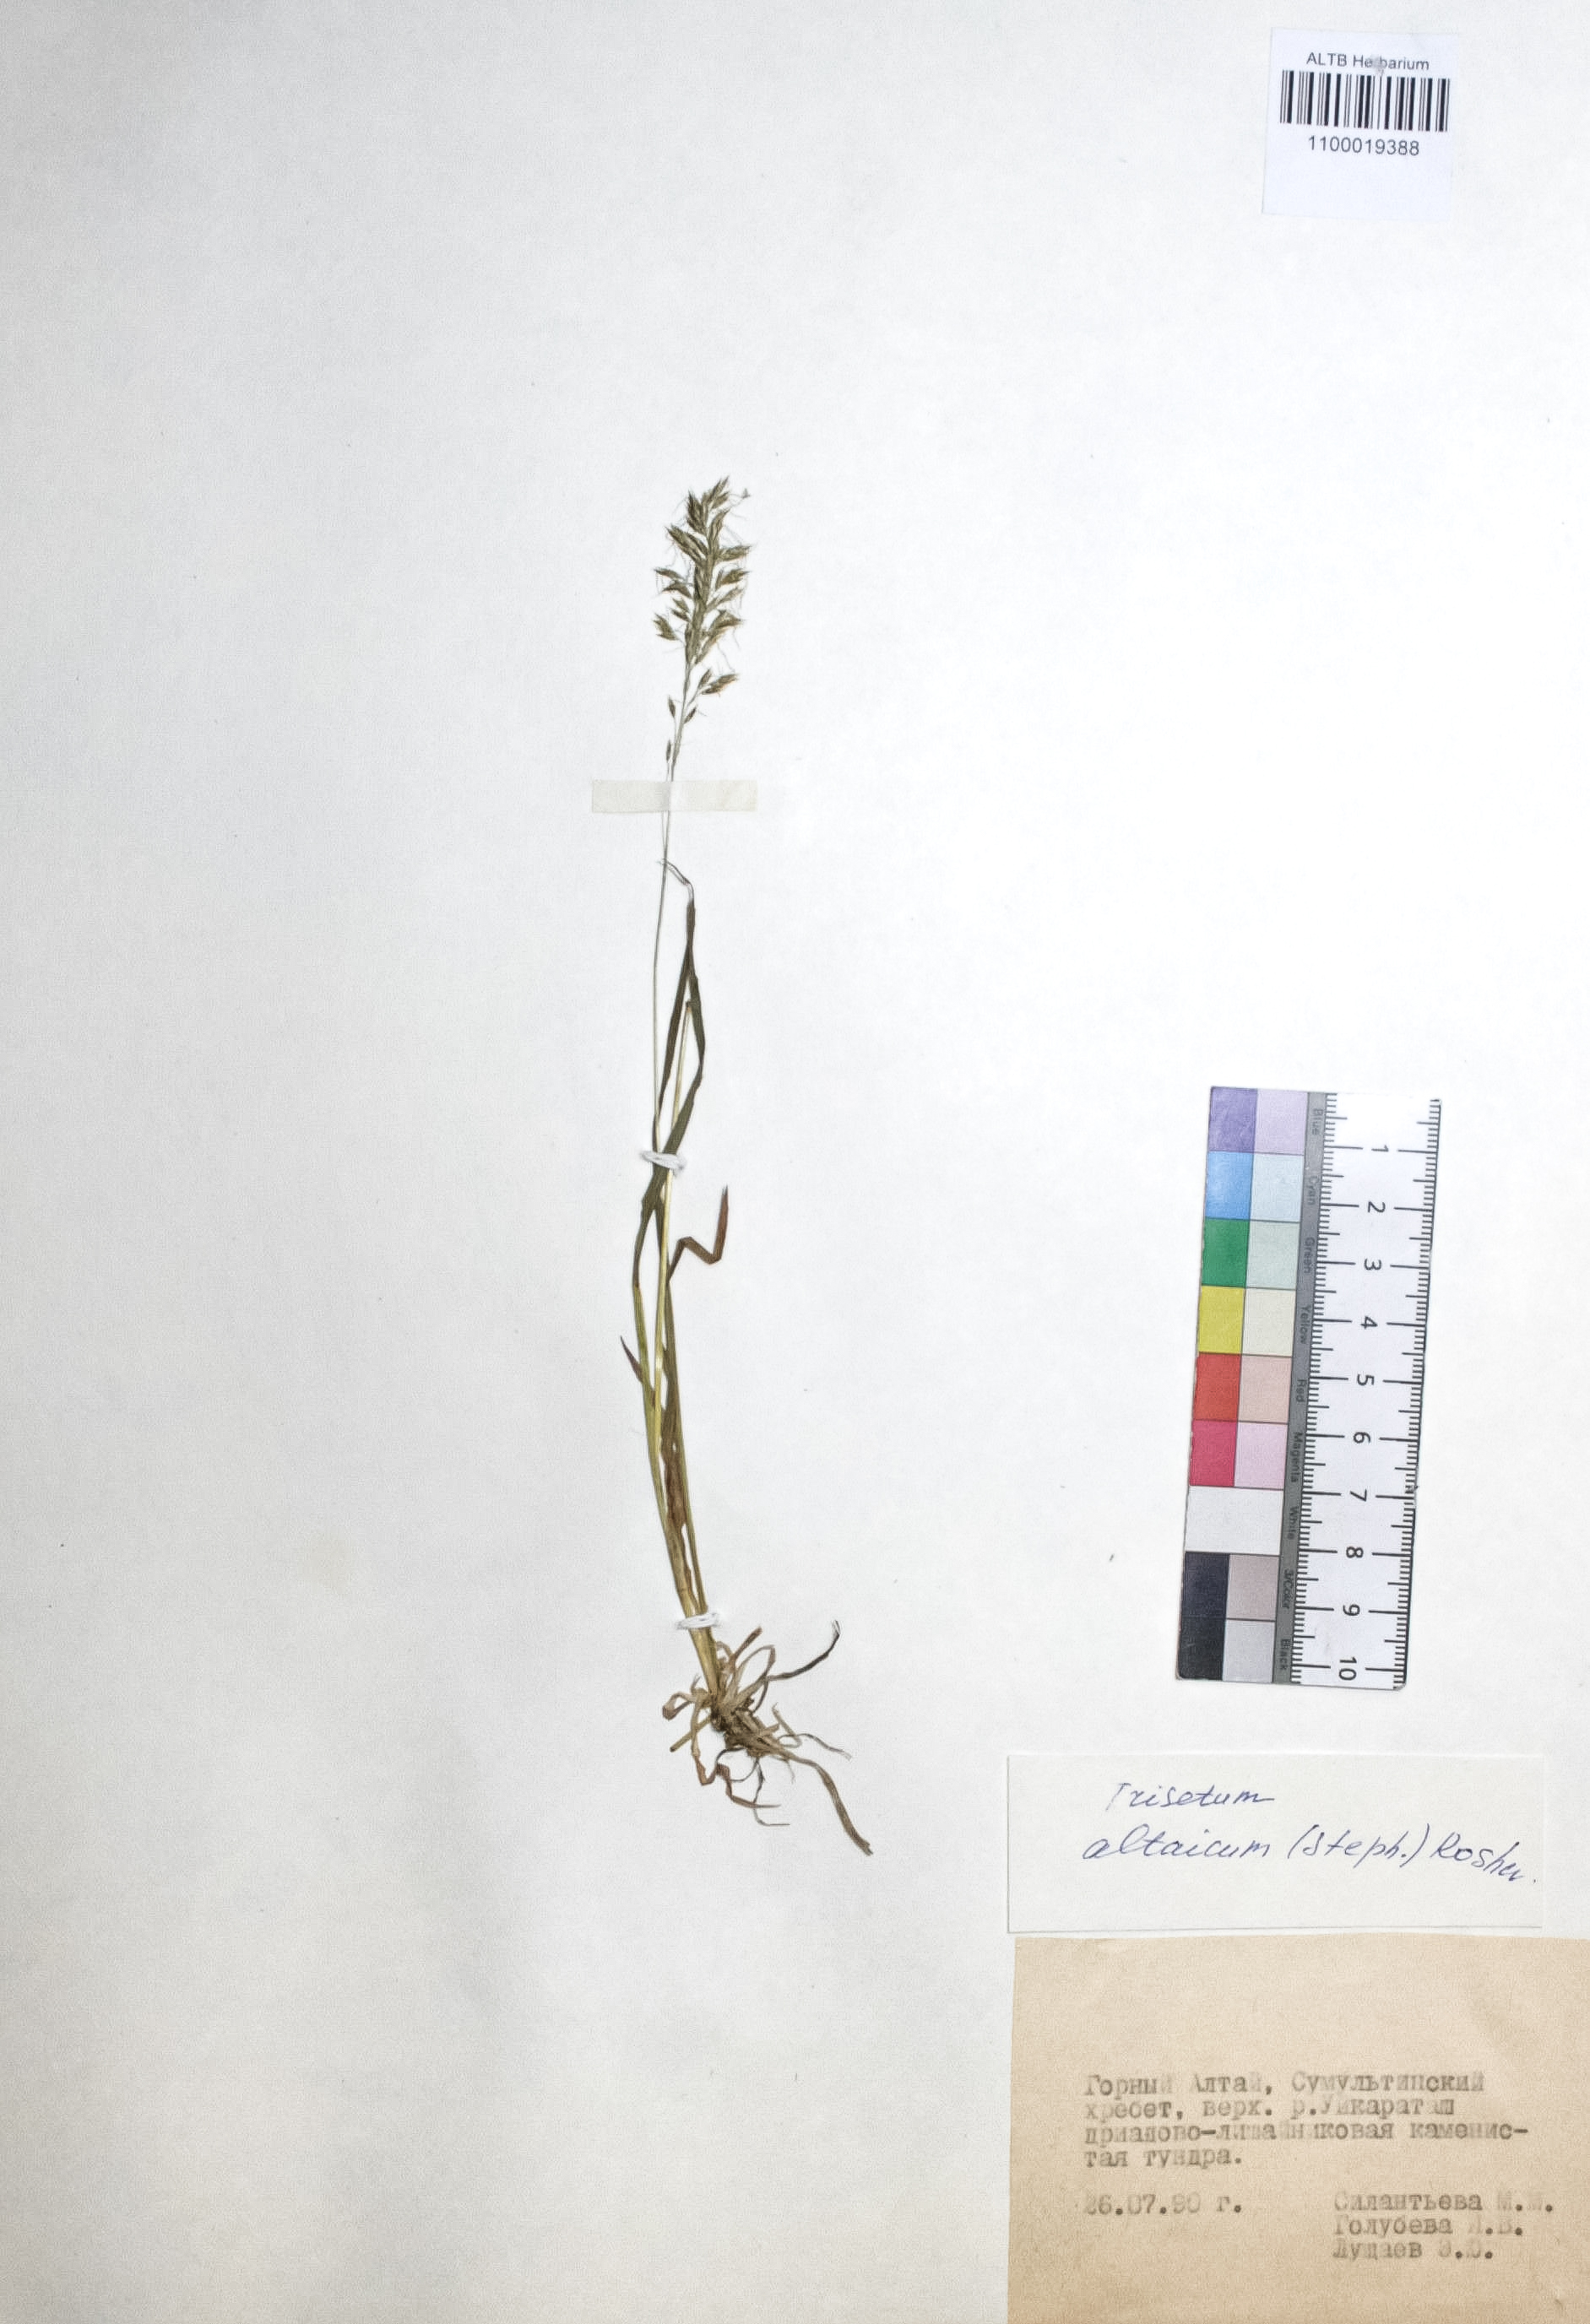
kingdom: Plantae
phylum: Tracheophyta
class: Liliopsida
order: Poales
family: Poaceae
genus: Trisetum
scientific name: Trisetum altaicum
